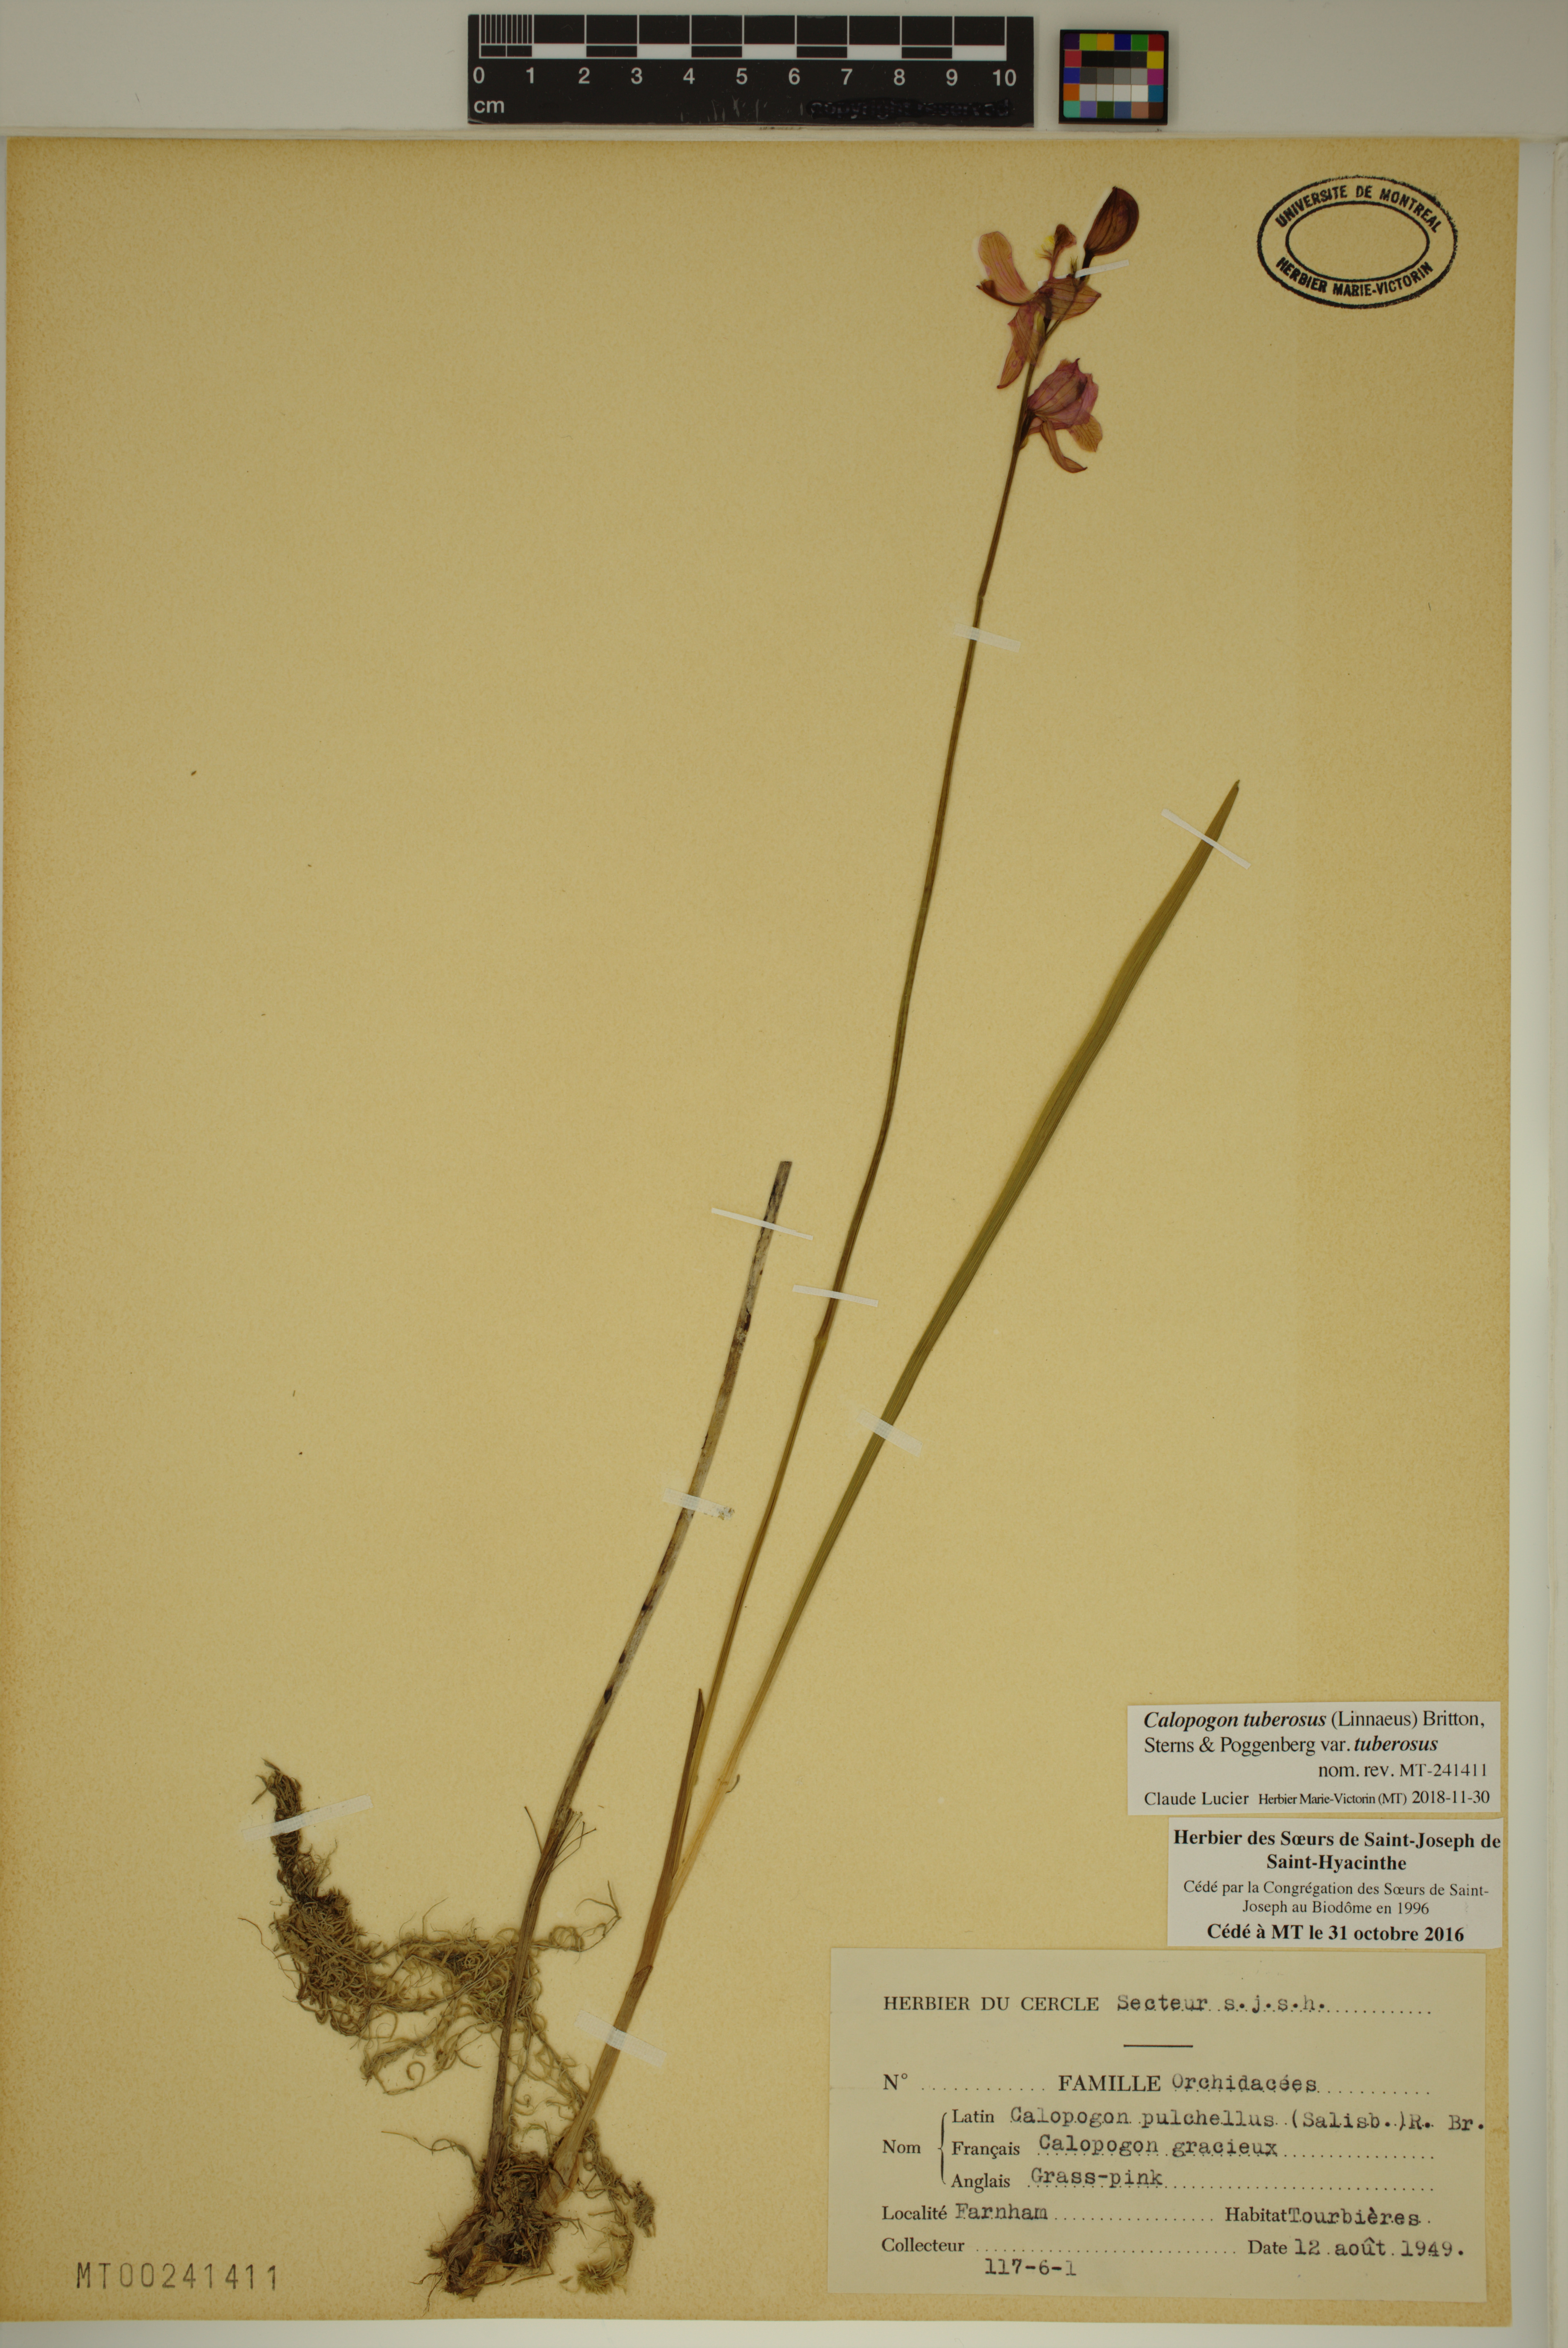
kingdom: Plantae
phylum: Tracheophyta
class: Liliopsida
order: Asparagales
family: Orchidaceae
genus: Calopogon
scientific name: Calopogon tuberosus
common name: Grass-pink
